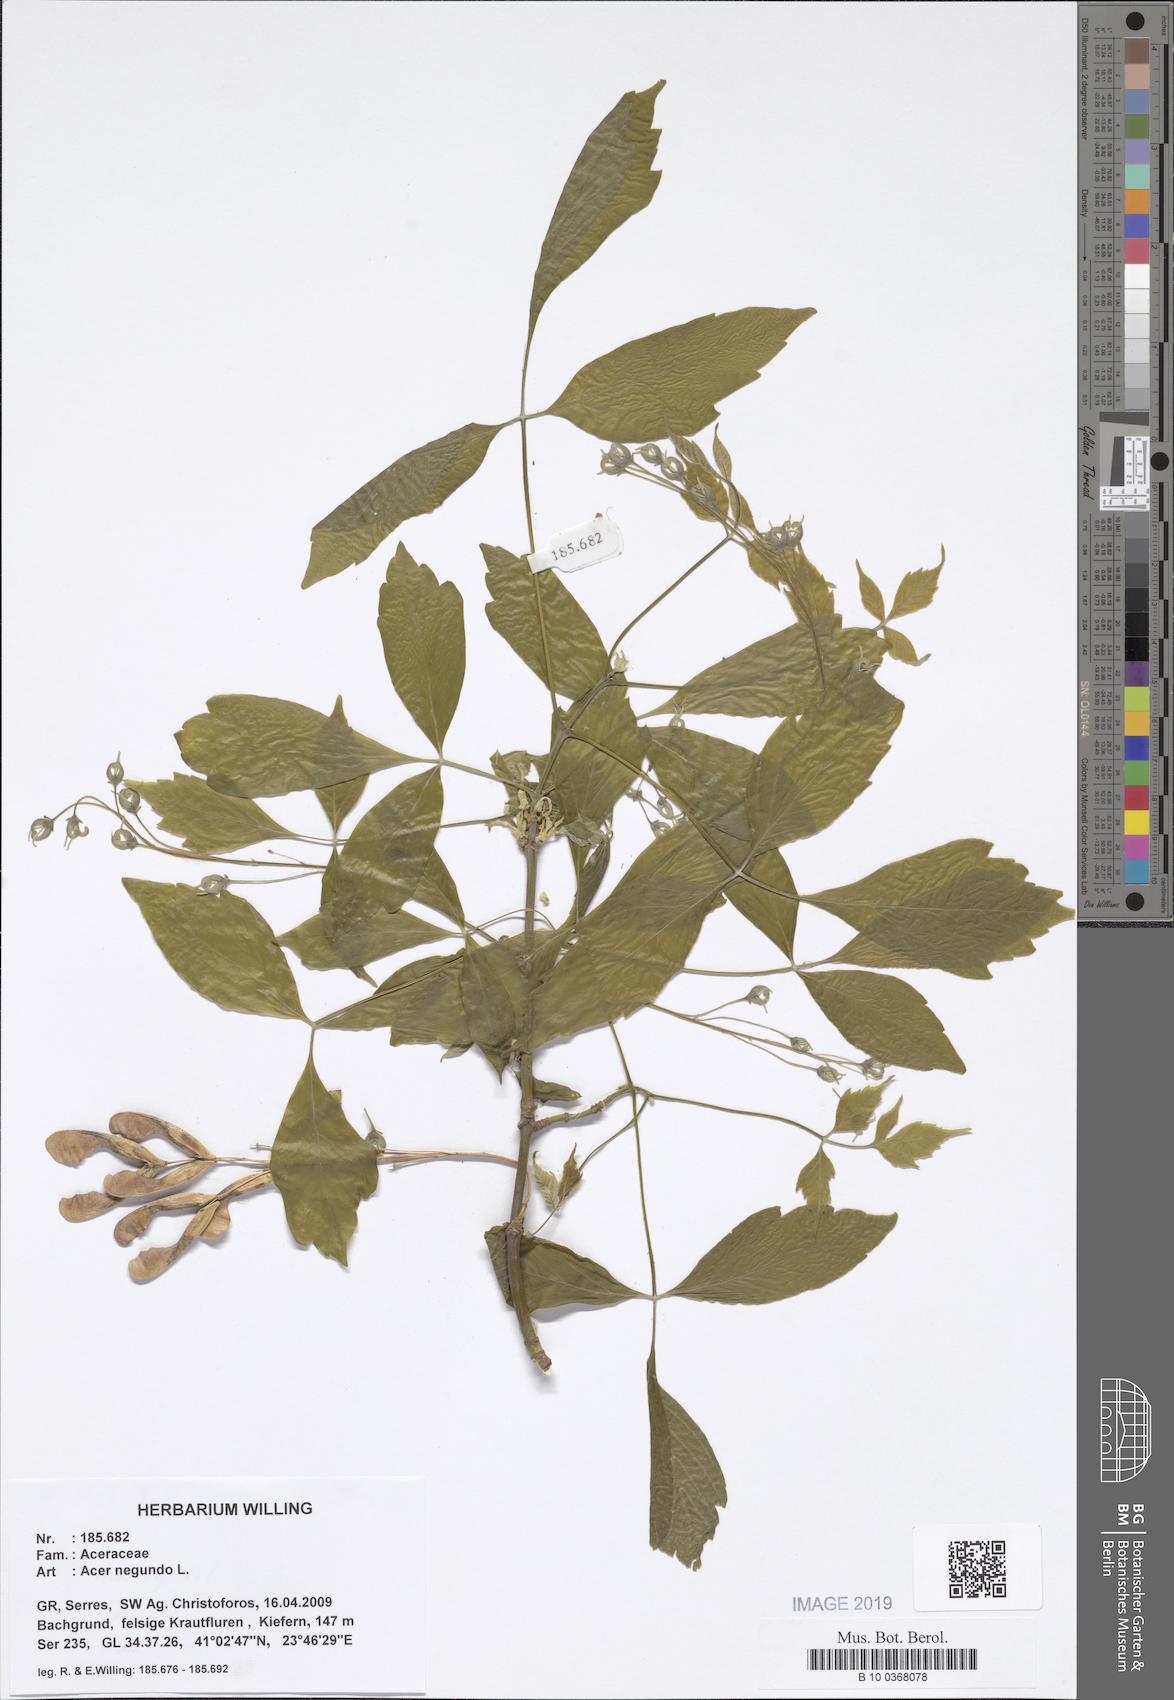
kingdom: Plantae
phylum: Tracheophyta
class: Magnoliopsida
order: Sapindales
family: Sapindaceae
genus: Acer
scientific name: Acer negundo
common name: Ashleaf maple
